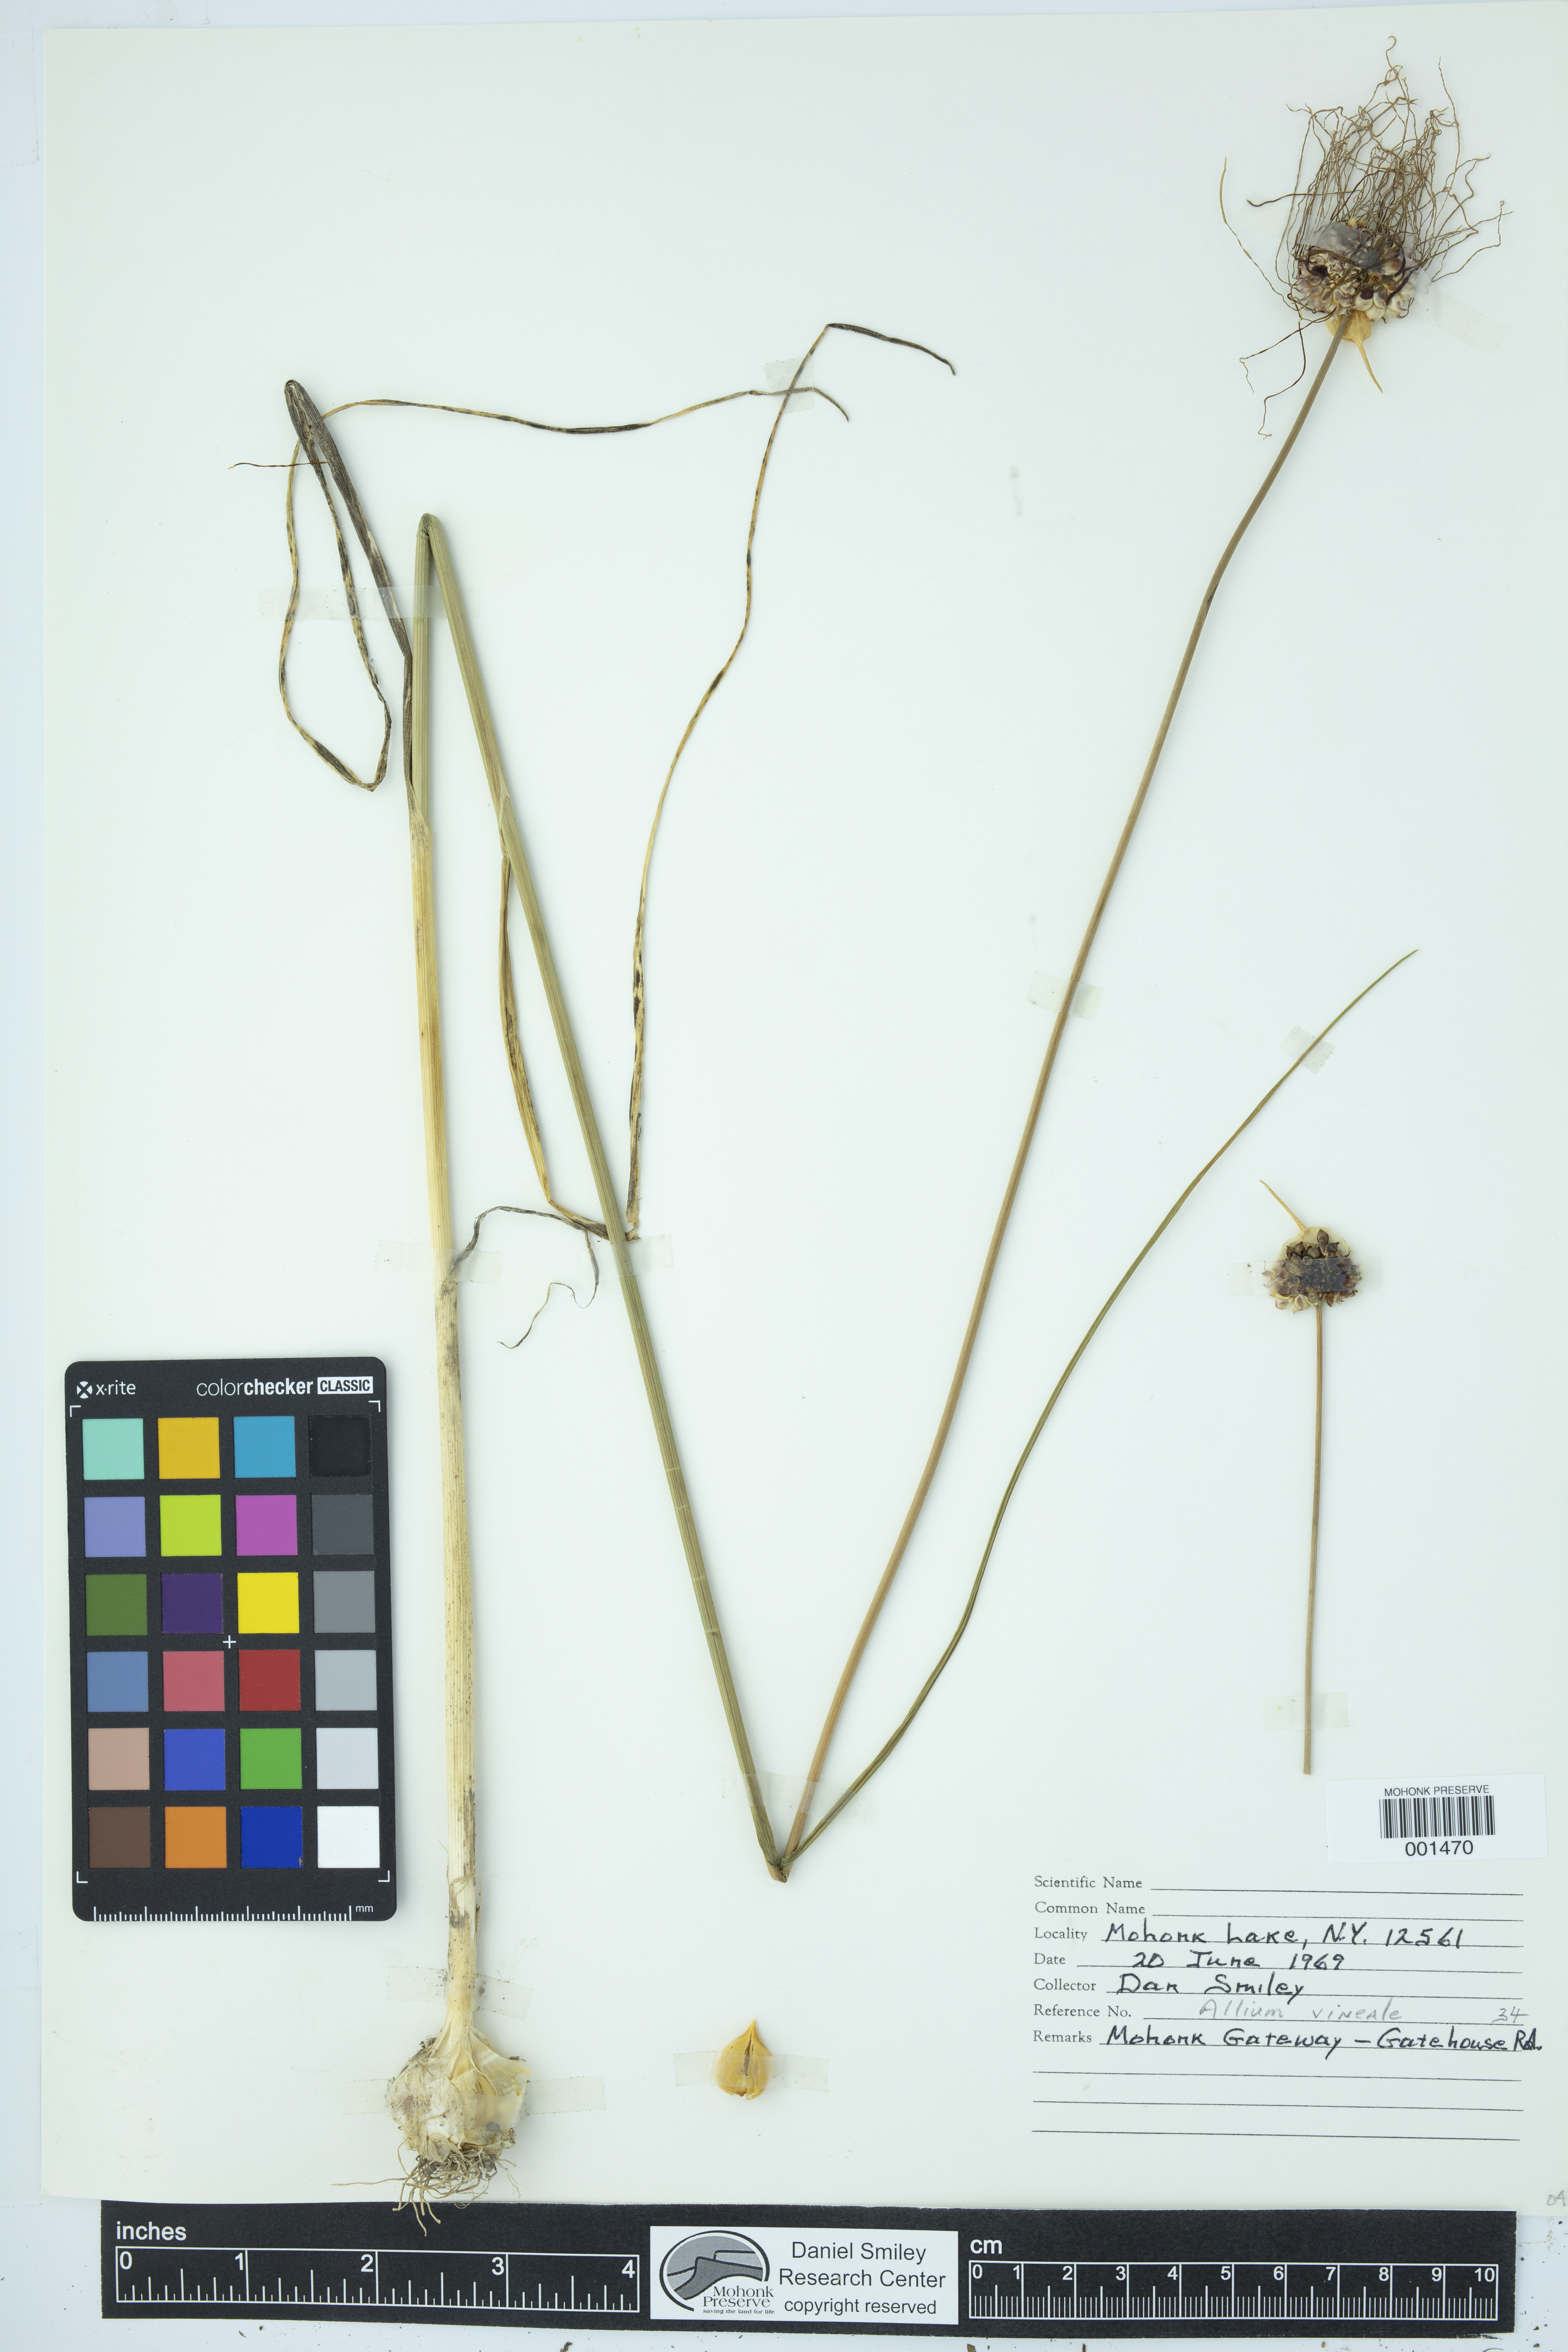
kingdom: Plantae
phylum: Tracheophyta
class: Liliopsida
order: Asparagales
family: Amaryllidaceae
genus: Allium
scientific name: Allium vineale
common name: Crow garlic
